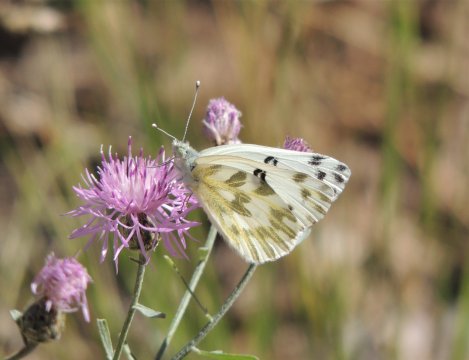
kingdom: Animalia
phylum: Arthropoda
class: Insecta
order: Lepidoptera
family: Pieridae
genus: Pontia
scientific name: Pontia beckerii
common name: Becker's White
